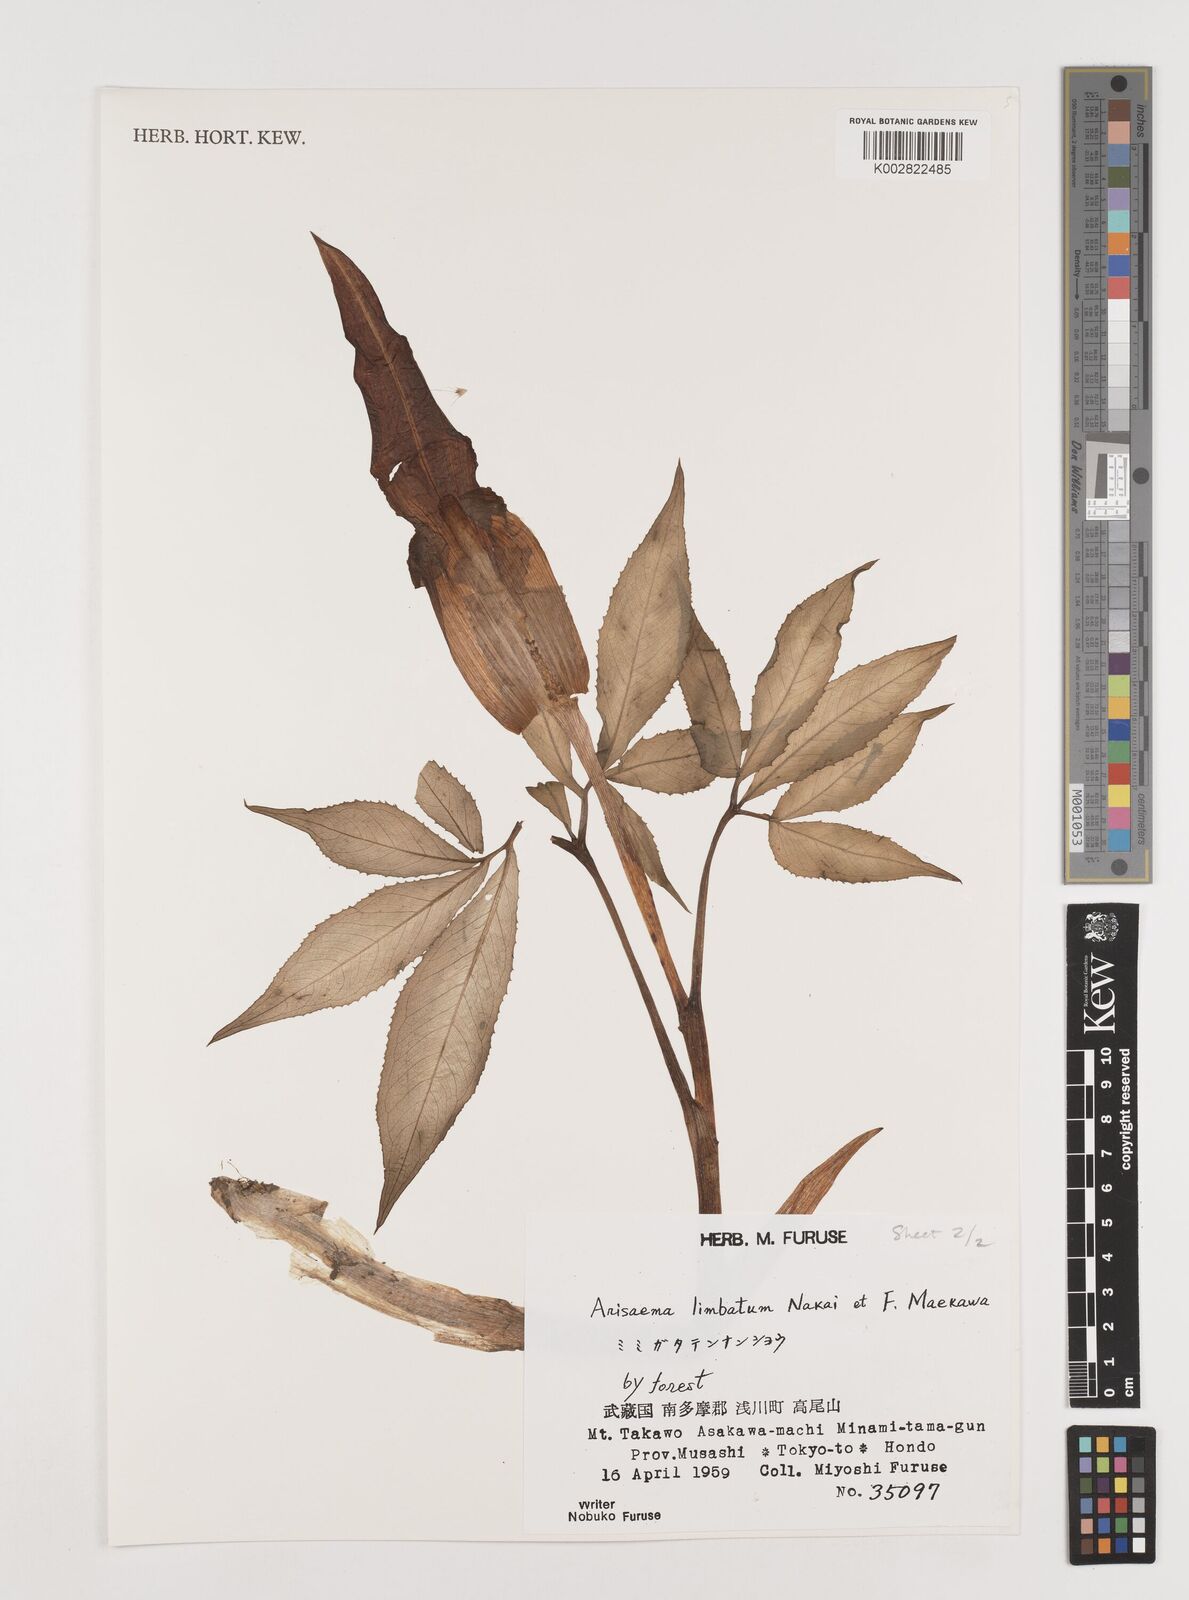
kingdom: Plantae
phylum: Tracheophyta
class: Liliopsida
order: Alismatales
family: Araceae
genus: Arisaema
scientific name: Arisaema limbatum
